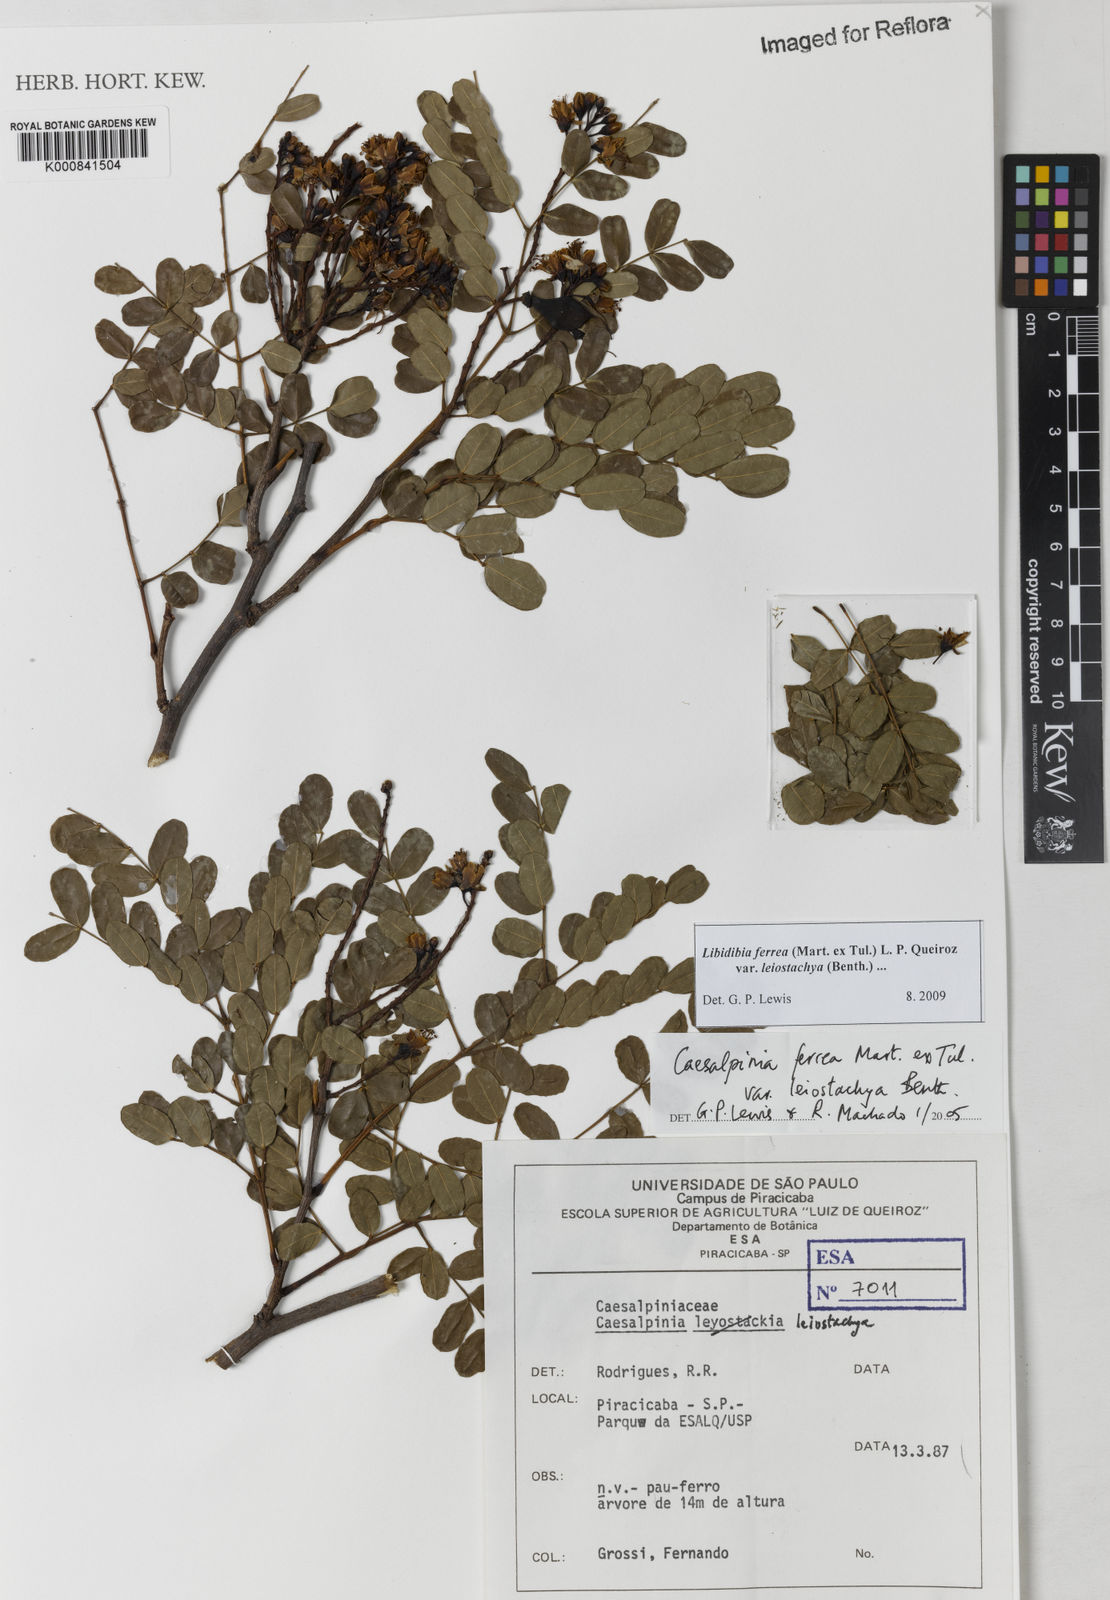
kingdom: Plantae
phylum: Tracheophyta
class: Magnoliopsida
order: Fabales
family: Fabaceae
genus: Libidibia
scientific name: Libidibia ferrea
